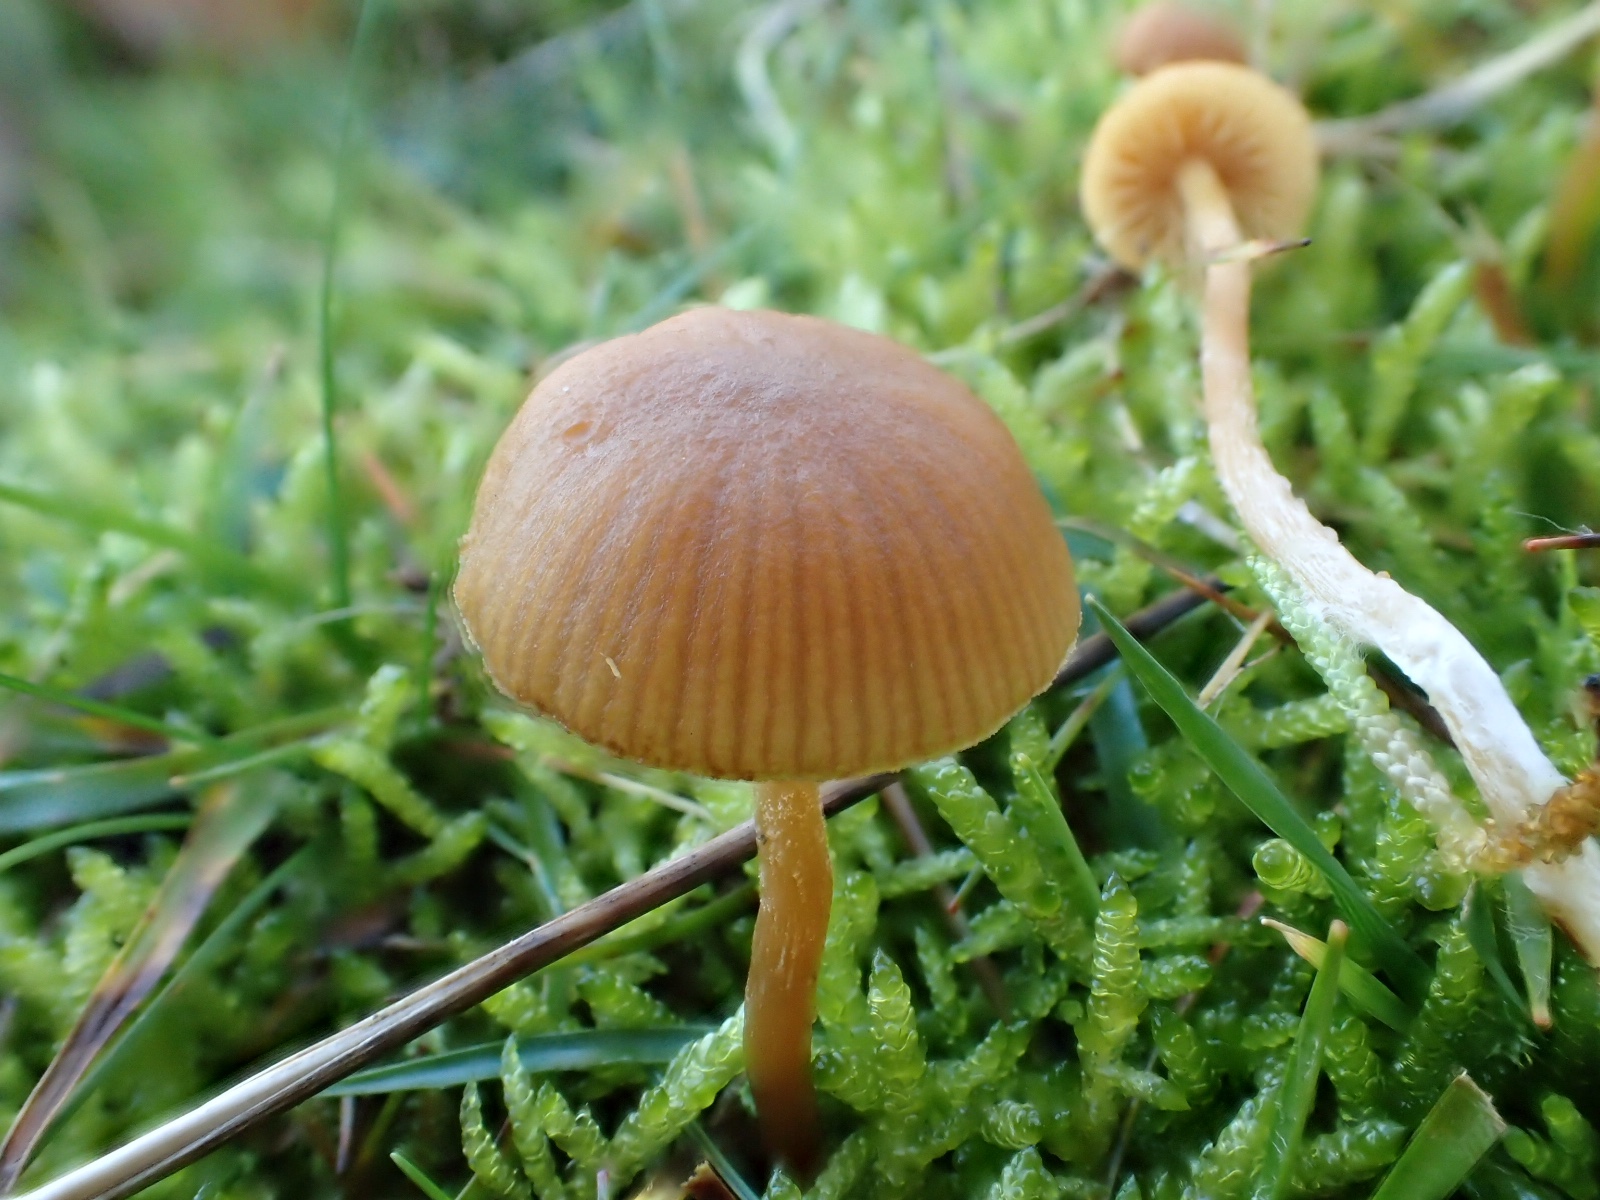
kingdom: Fungi
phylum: Basidiomycota
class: Agaricomycetes
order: Agaricales
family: Hymenogastraceae
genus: Galerina
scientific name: Galerina
